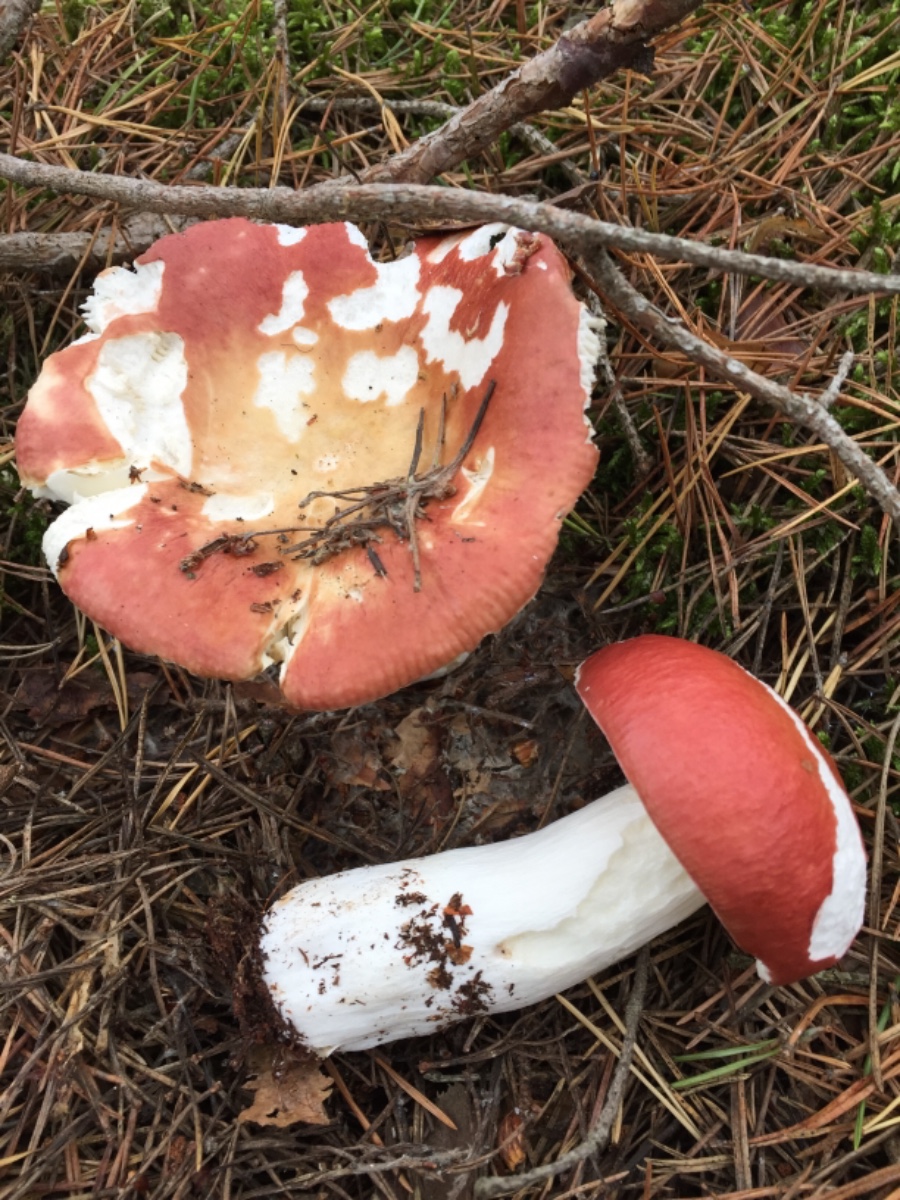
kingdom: Fungi
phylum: Basidiomycota
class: Agaricomycetes
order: Russulales
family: Russulaceae
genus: Russula
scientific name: Russula paludosa
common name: prægtig skørhat
